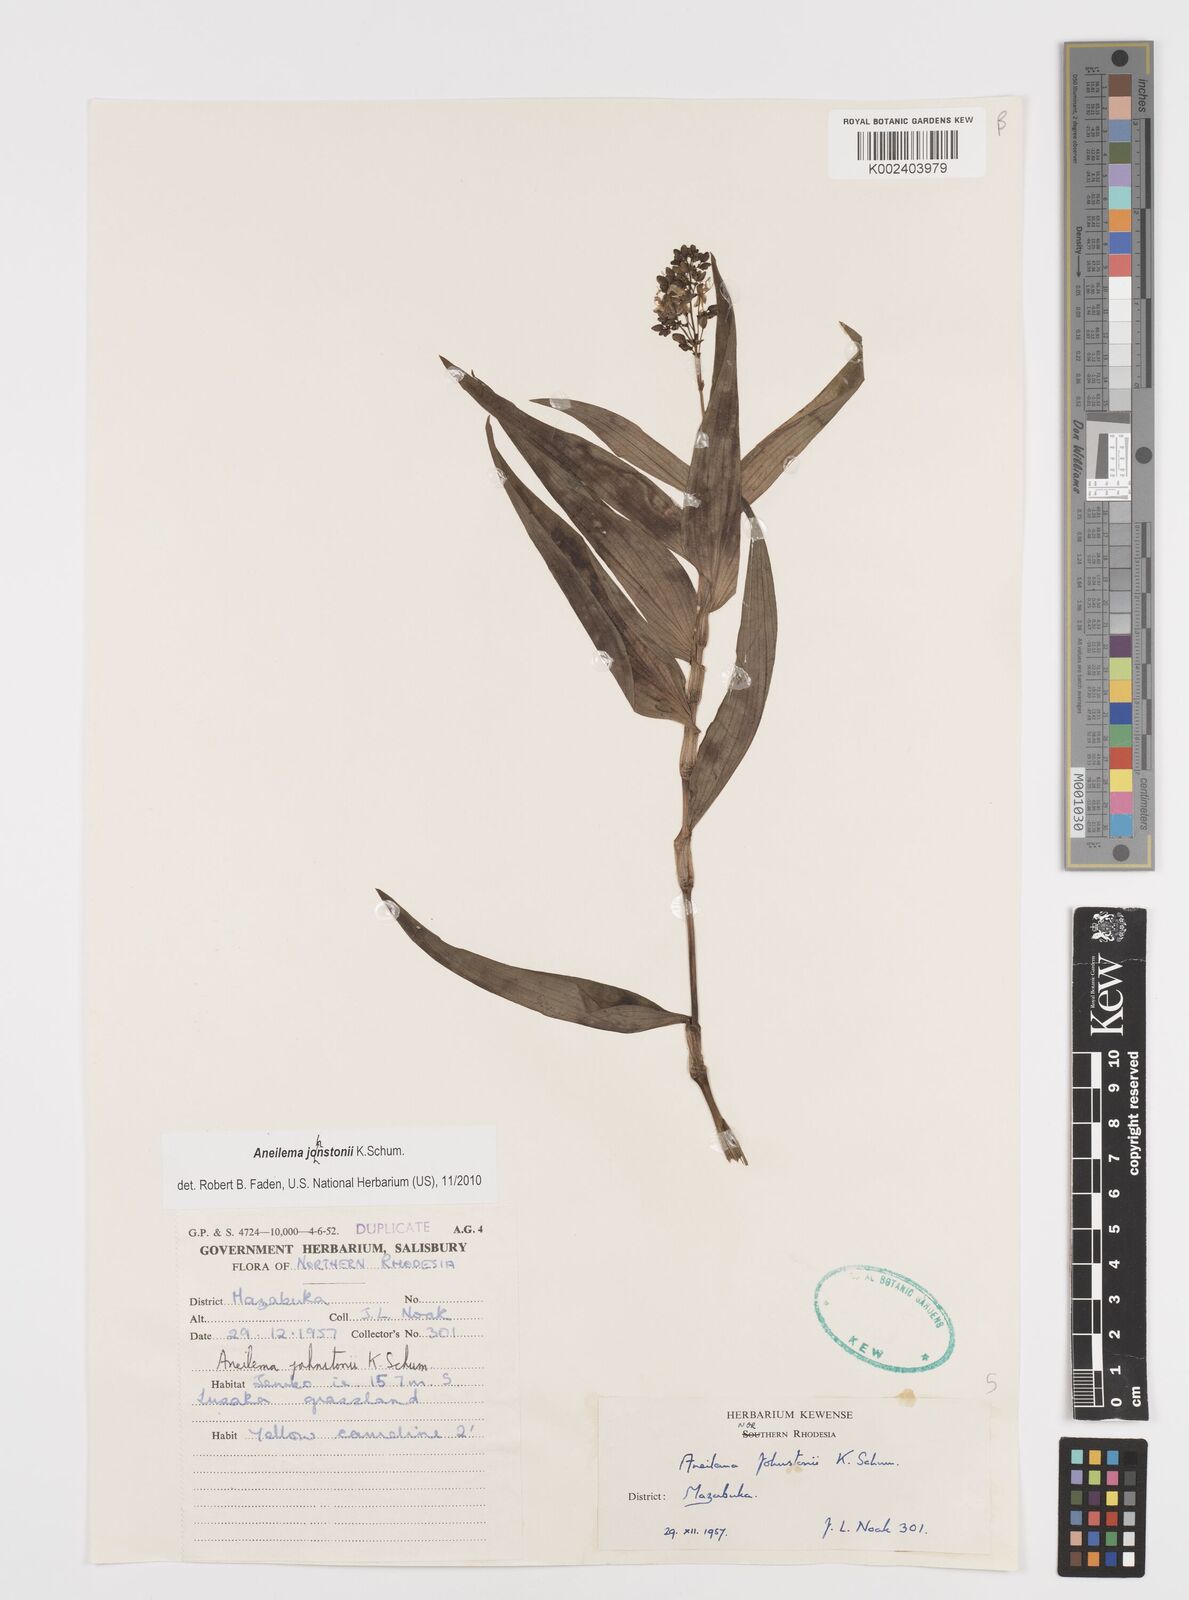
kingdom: Plantae
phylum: Tracheophyta
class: Liliopsida
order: Commelinales
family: Commelinaceae
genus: Aneilema
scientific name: Aneilema johnstonii
